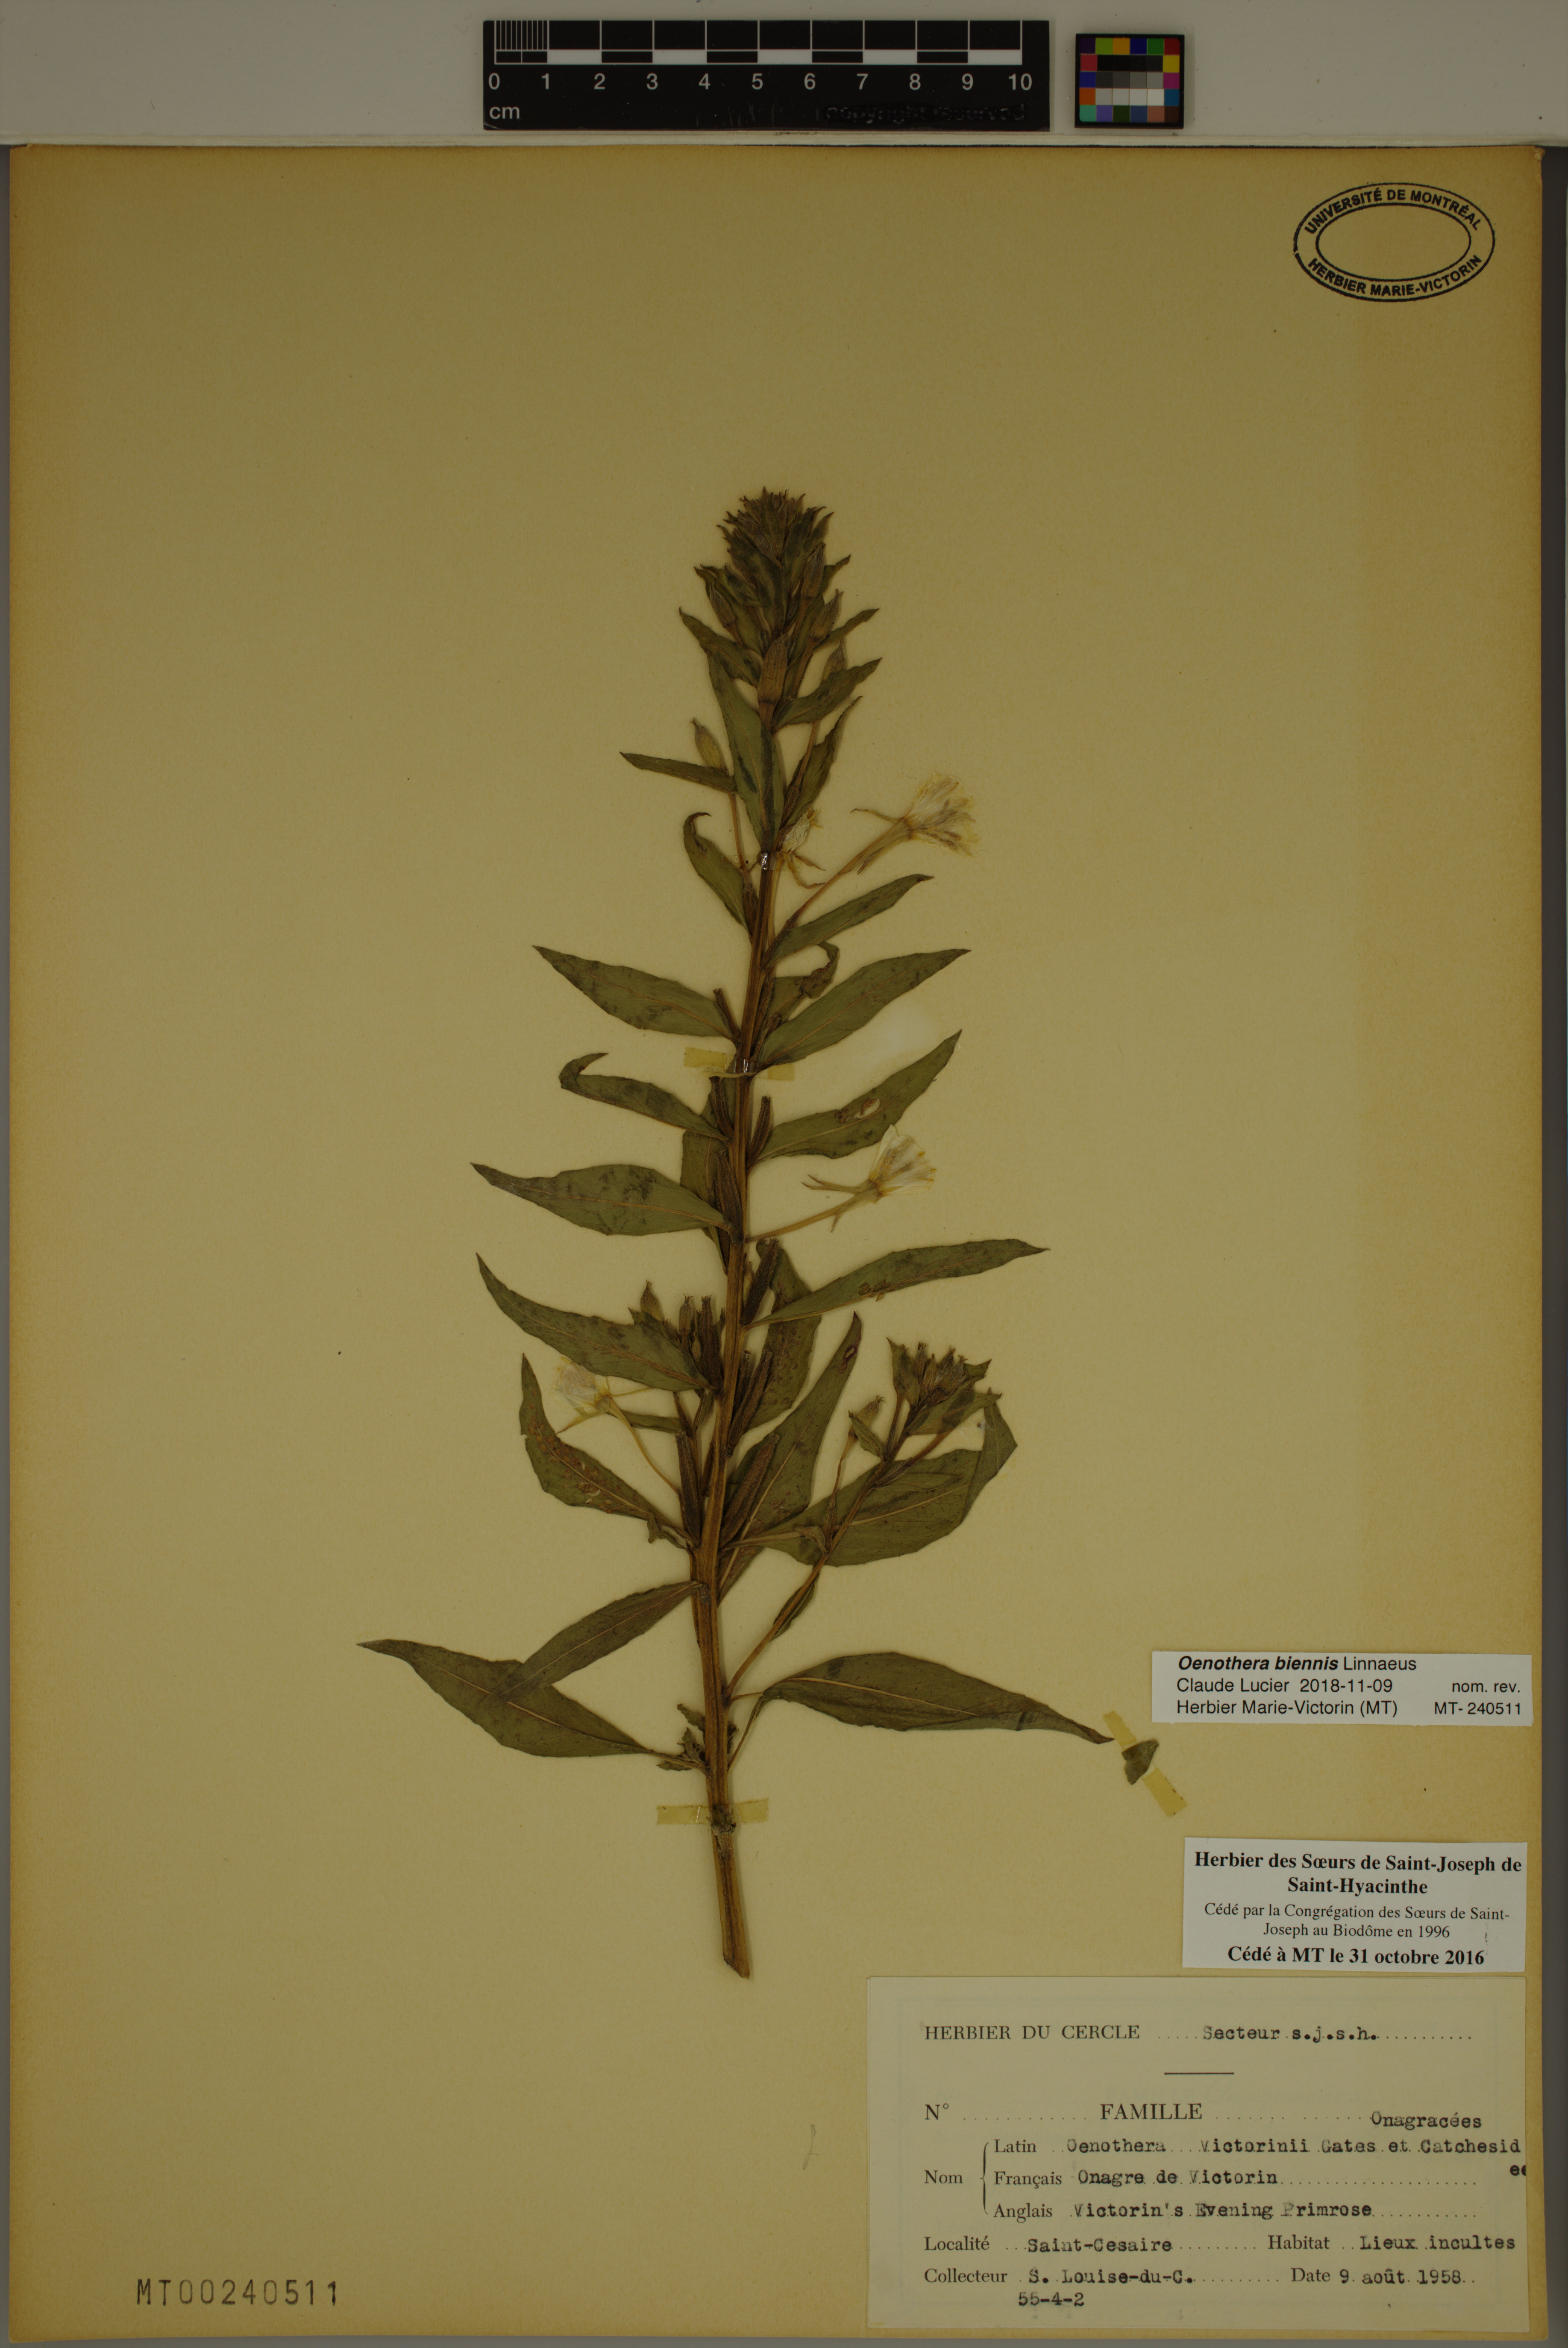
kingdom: Plantae
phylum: Tracheophyta
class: Magnoliopsida
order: Myrtales
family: Onagraceae
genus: Oenothera
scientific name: Oenothera biennis
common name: Common evening-primrose
